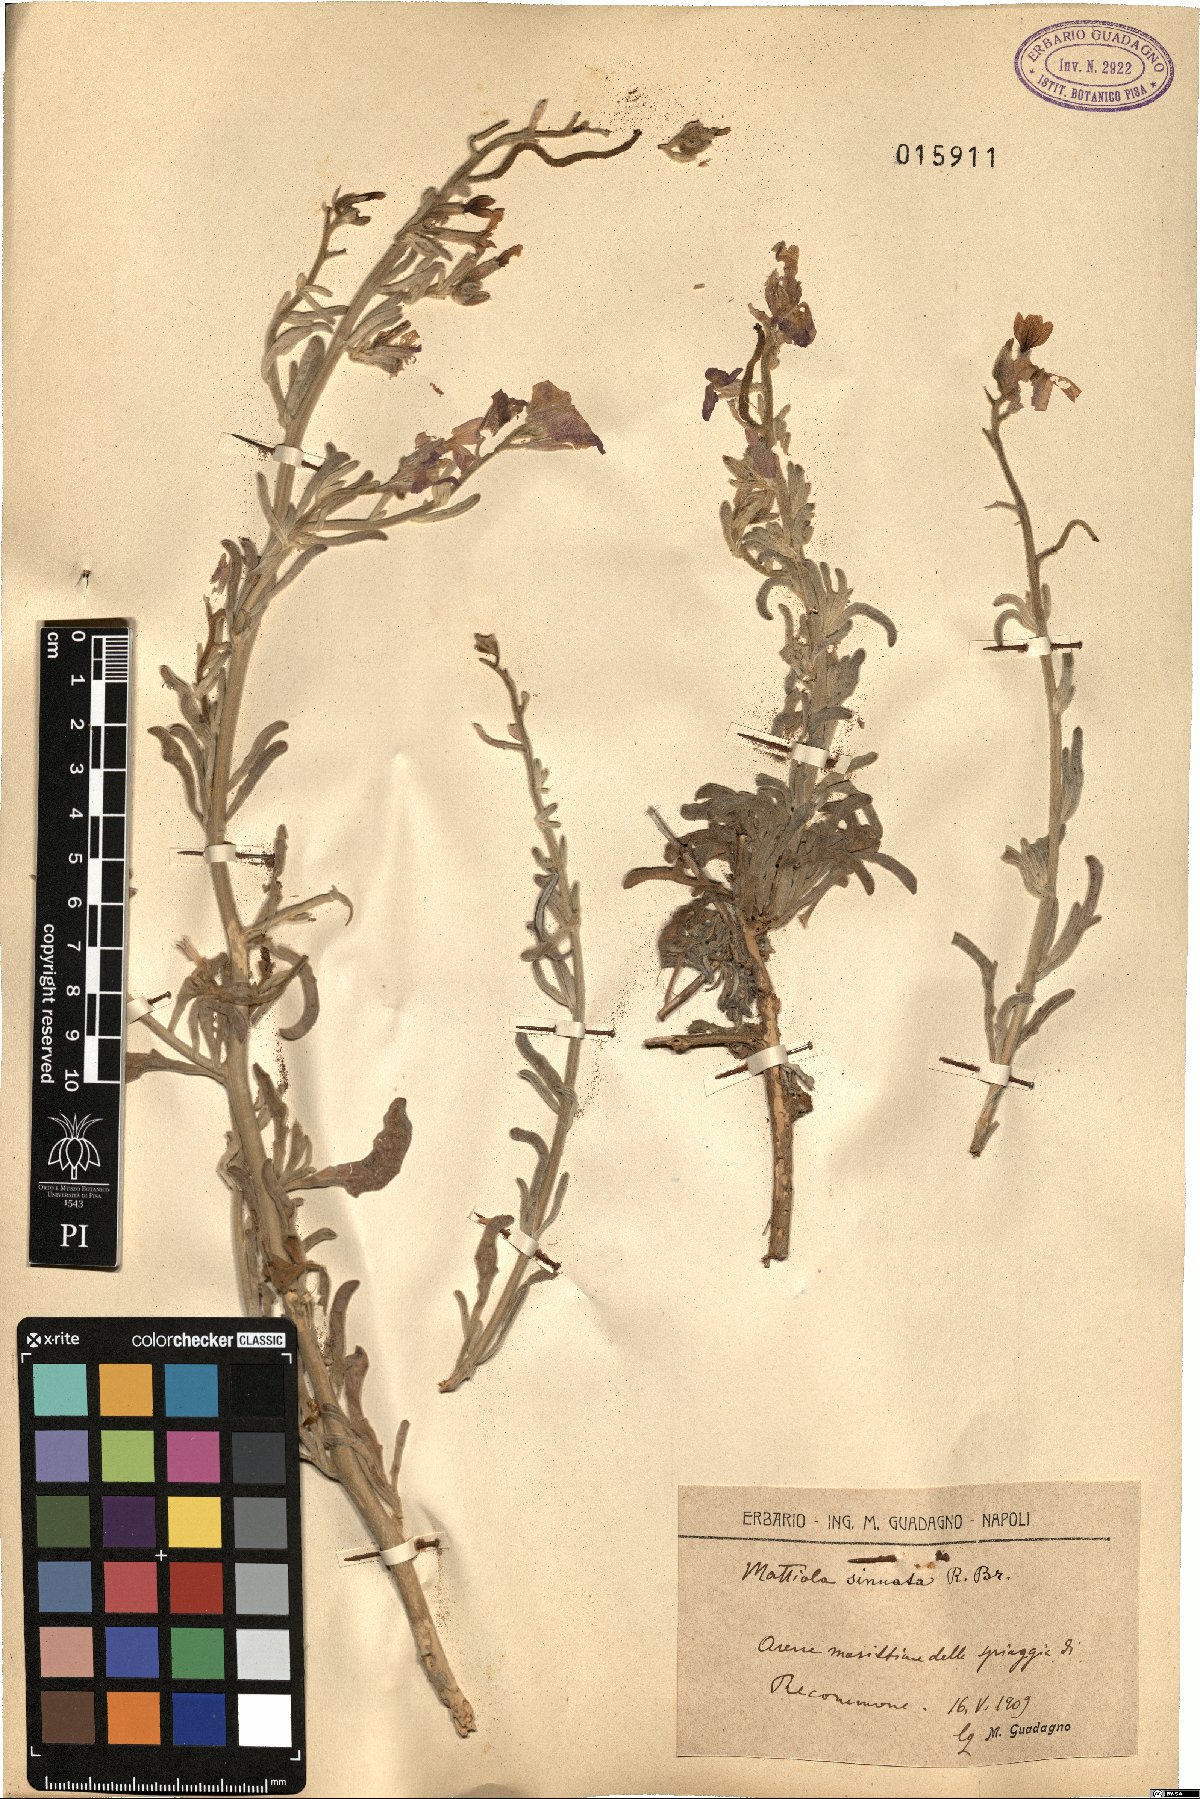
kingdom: Plantae
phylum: Tracheophyta
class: Magnoliopsida
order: Brassicales
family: Brassicaceae
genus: Matthiola
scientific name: Matthiola sinuata
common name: Sea stock
